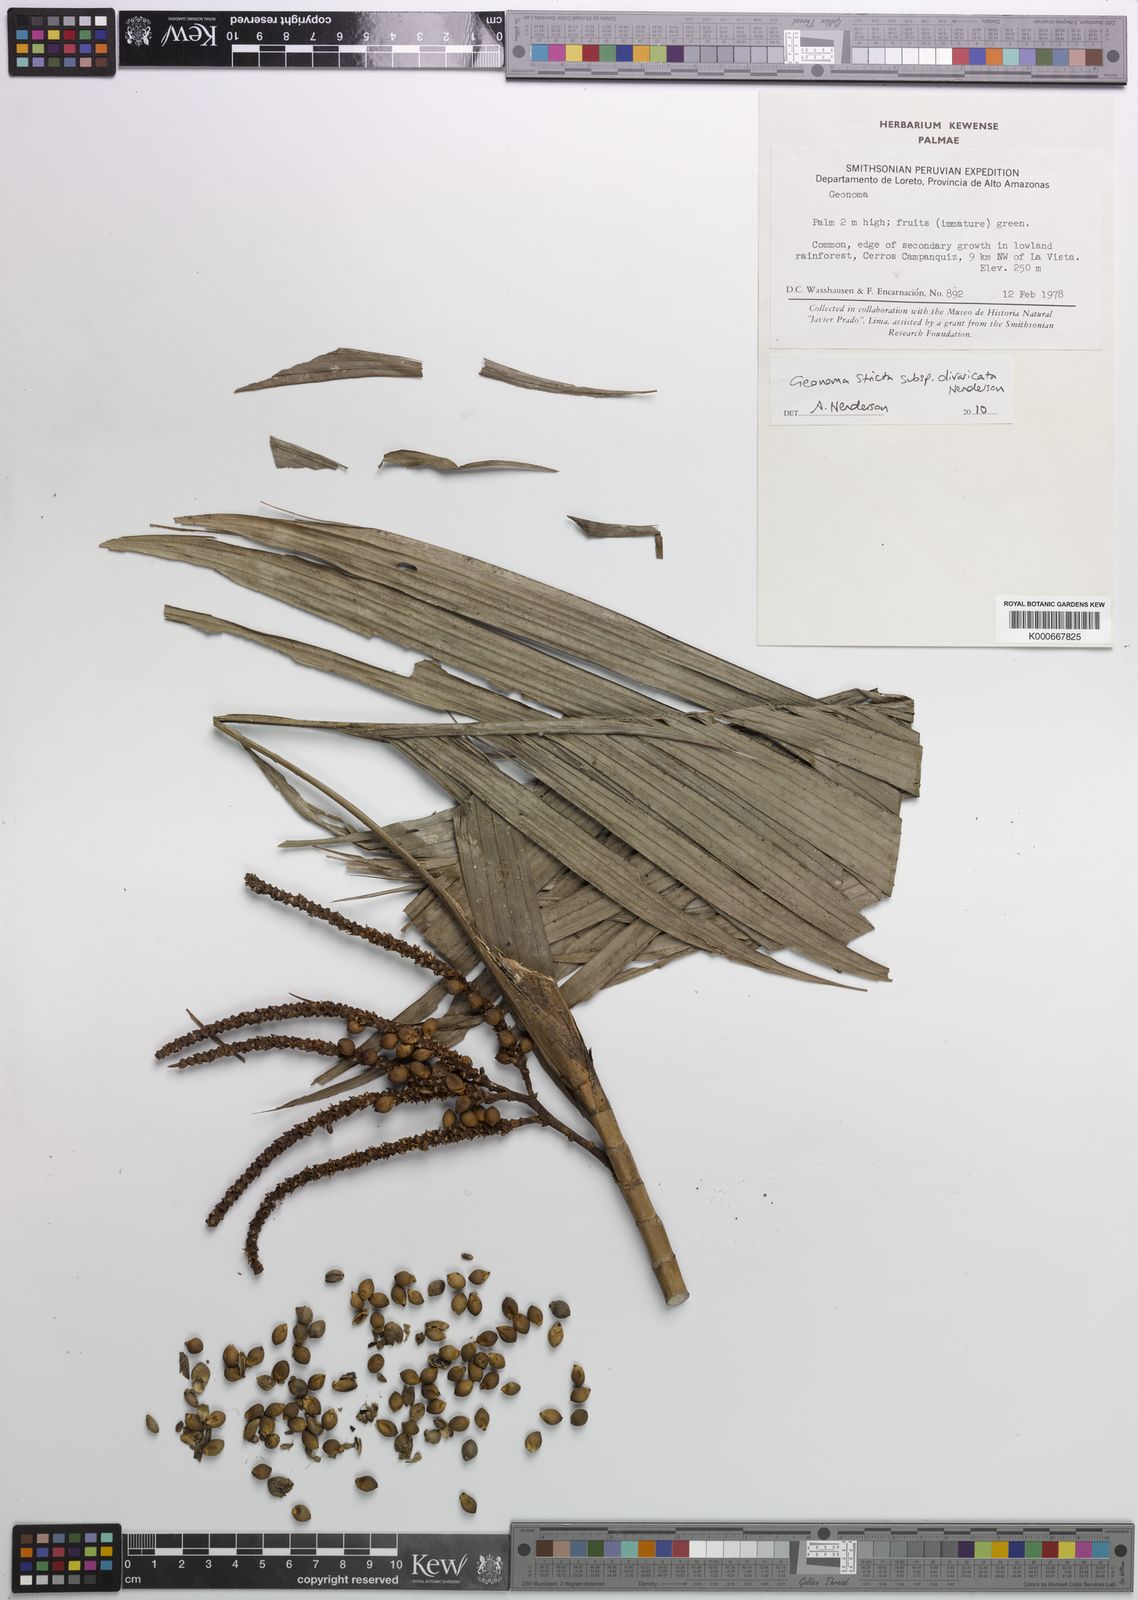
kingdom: Plantae
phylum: Tracheophyta
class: Liliopsida
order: Arecales
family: Arecaceae
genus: Geonoma
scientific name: Geonoma stricta
